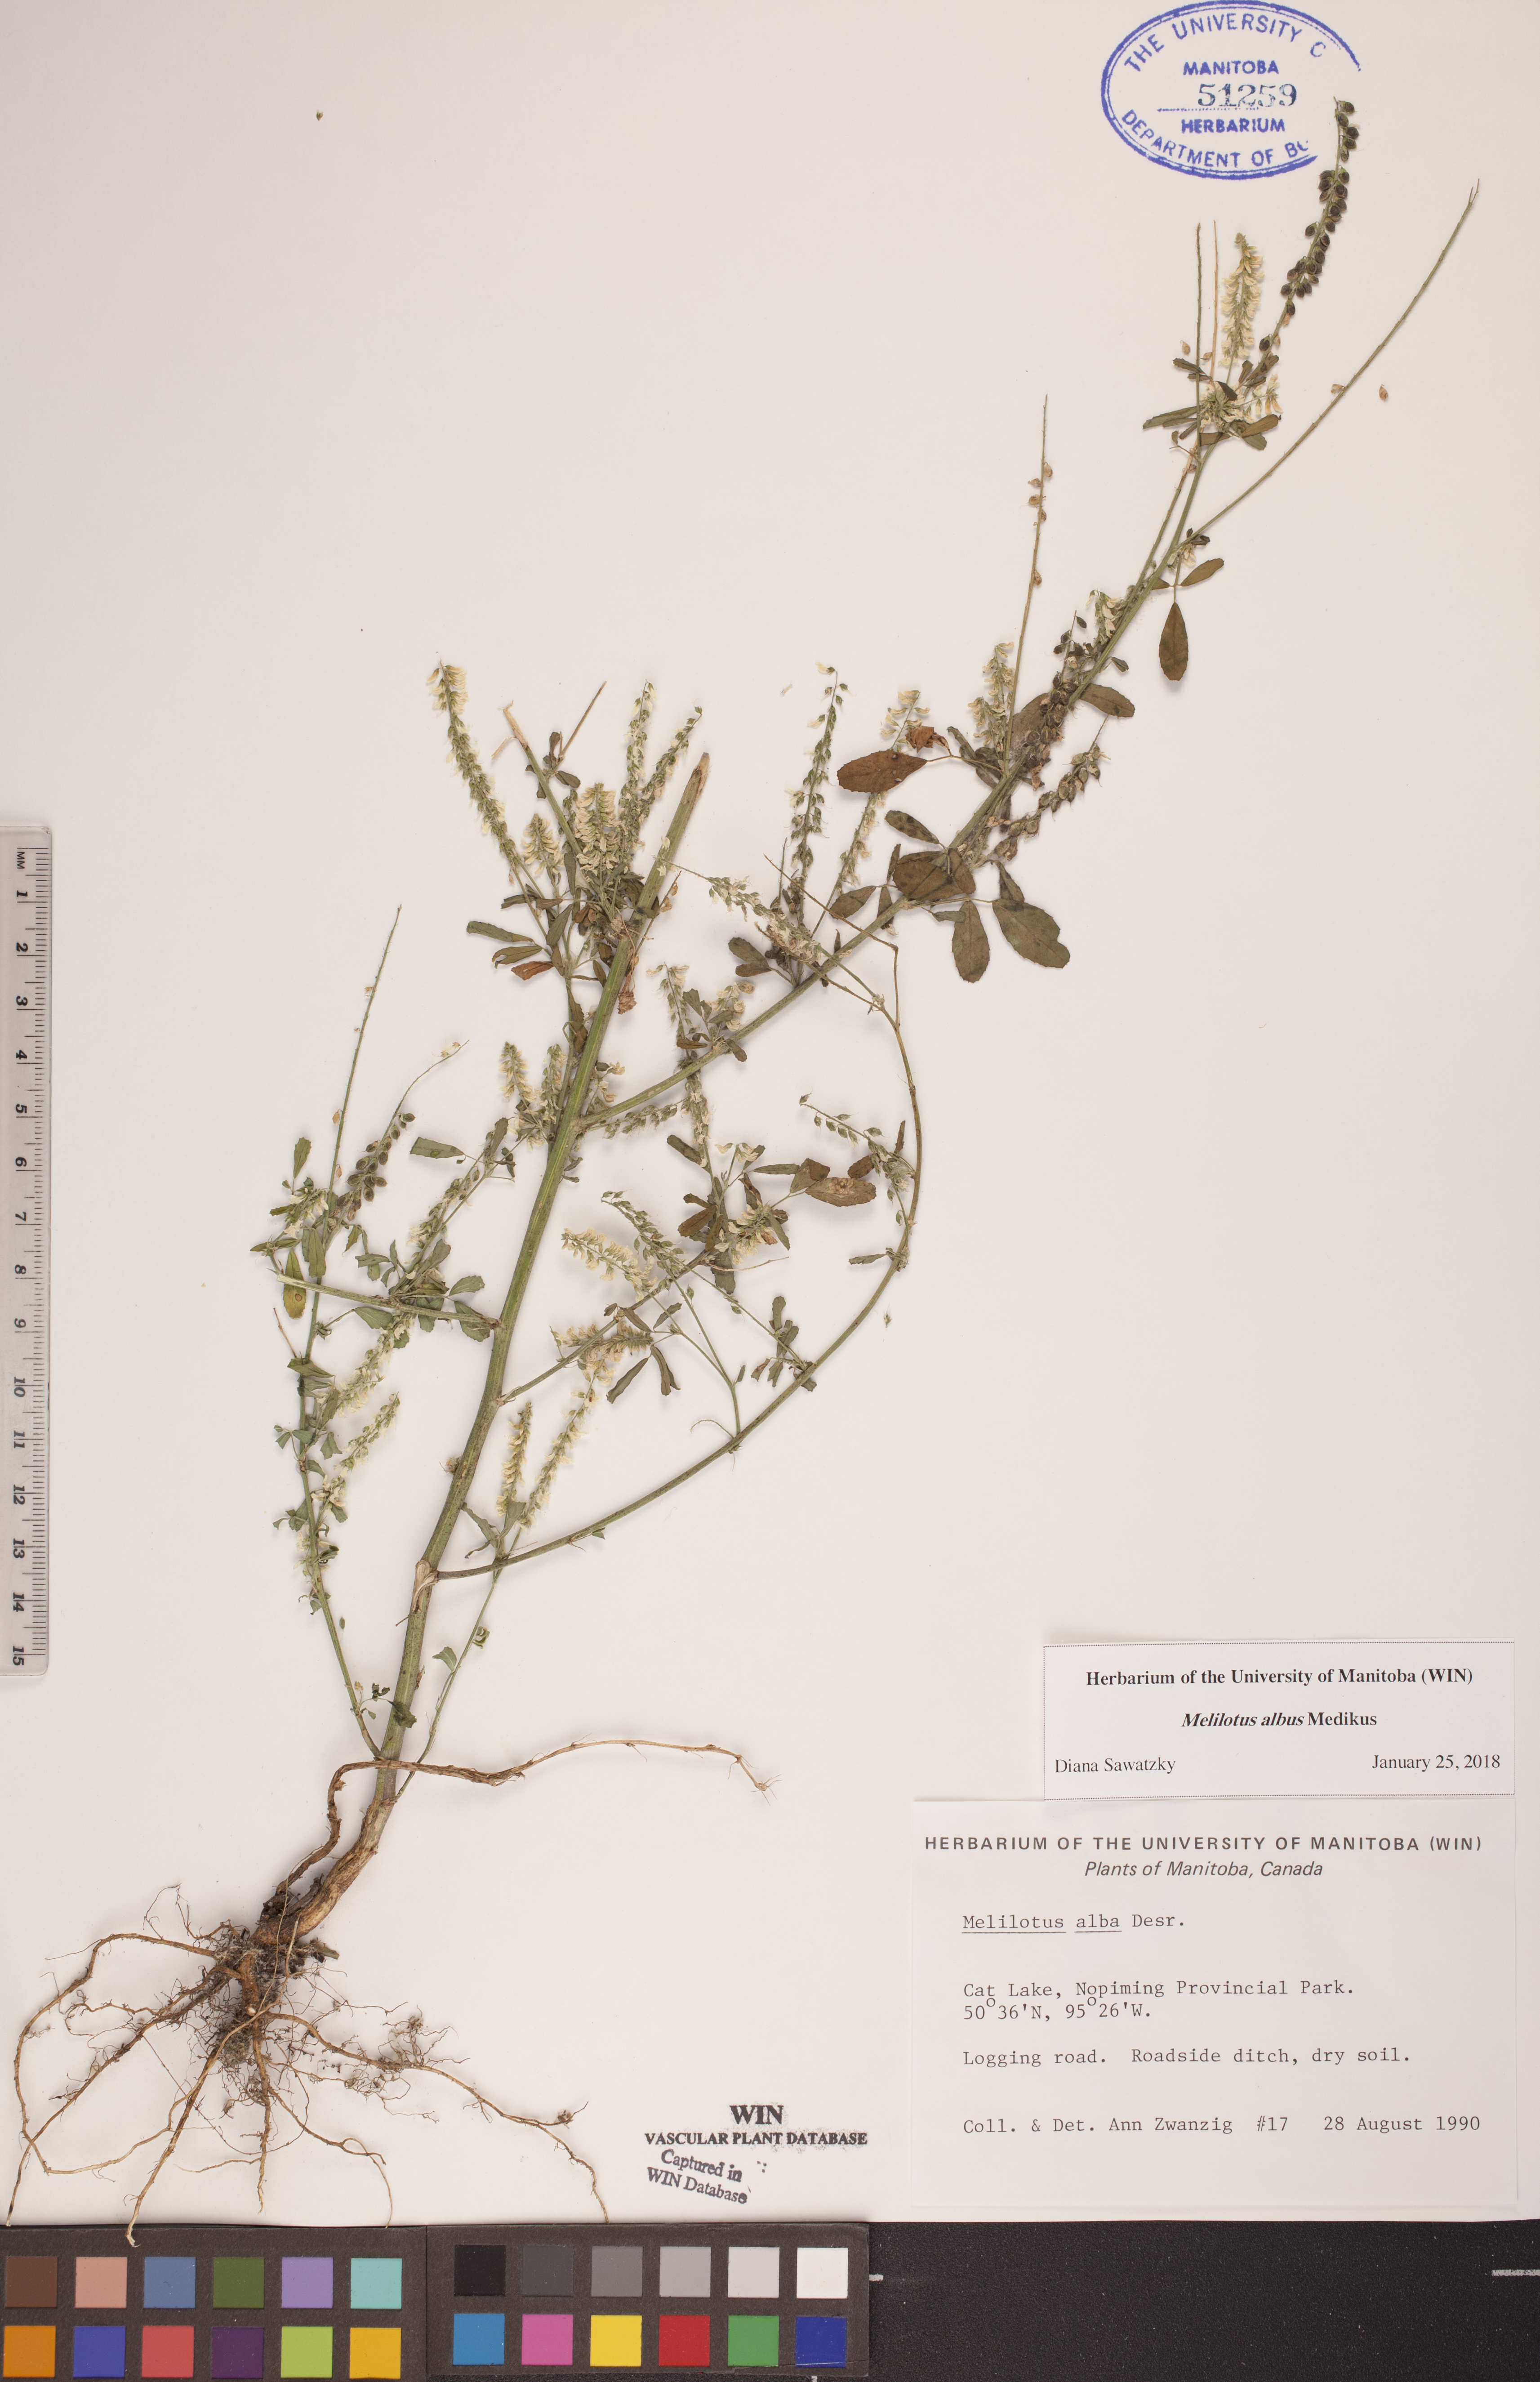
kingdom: Plantae
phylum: Tracheophyta
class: Magnoliopsida
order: Fabales
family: Fabaceae
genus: Melilotus
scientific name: Melilotus albus
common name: White melilot
